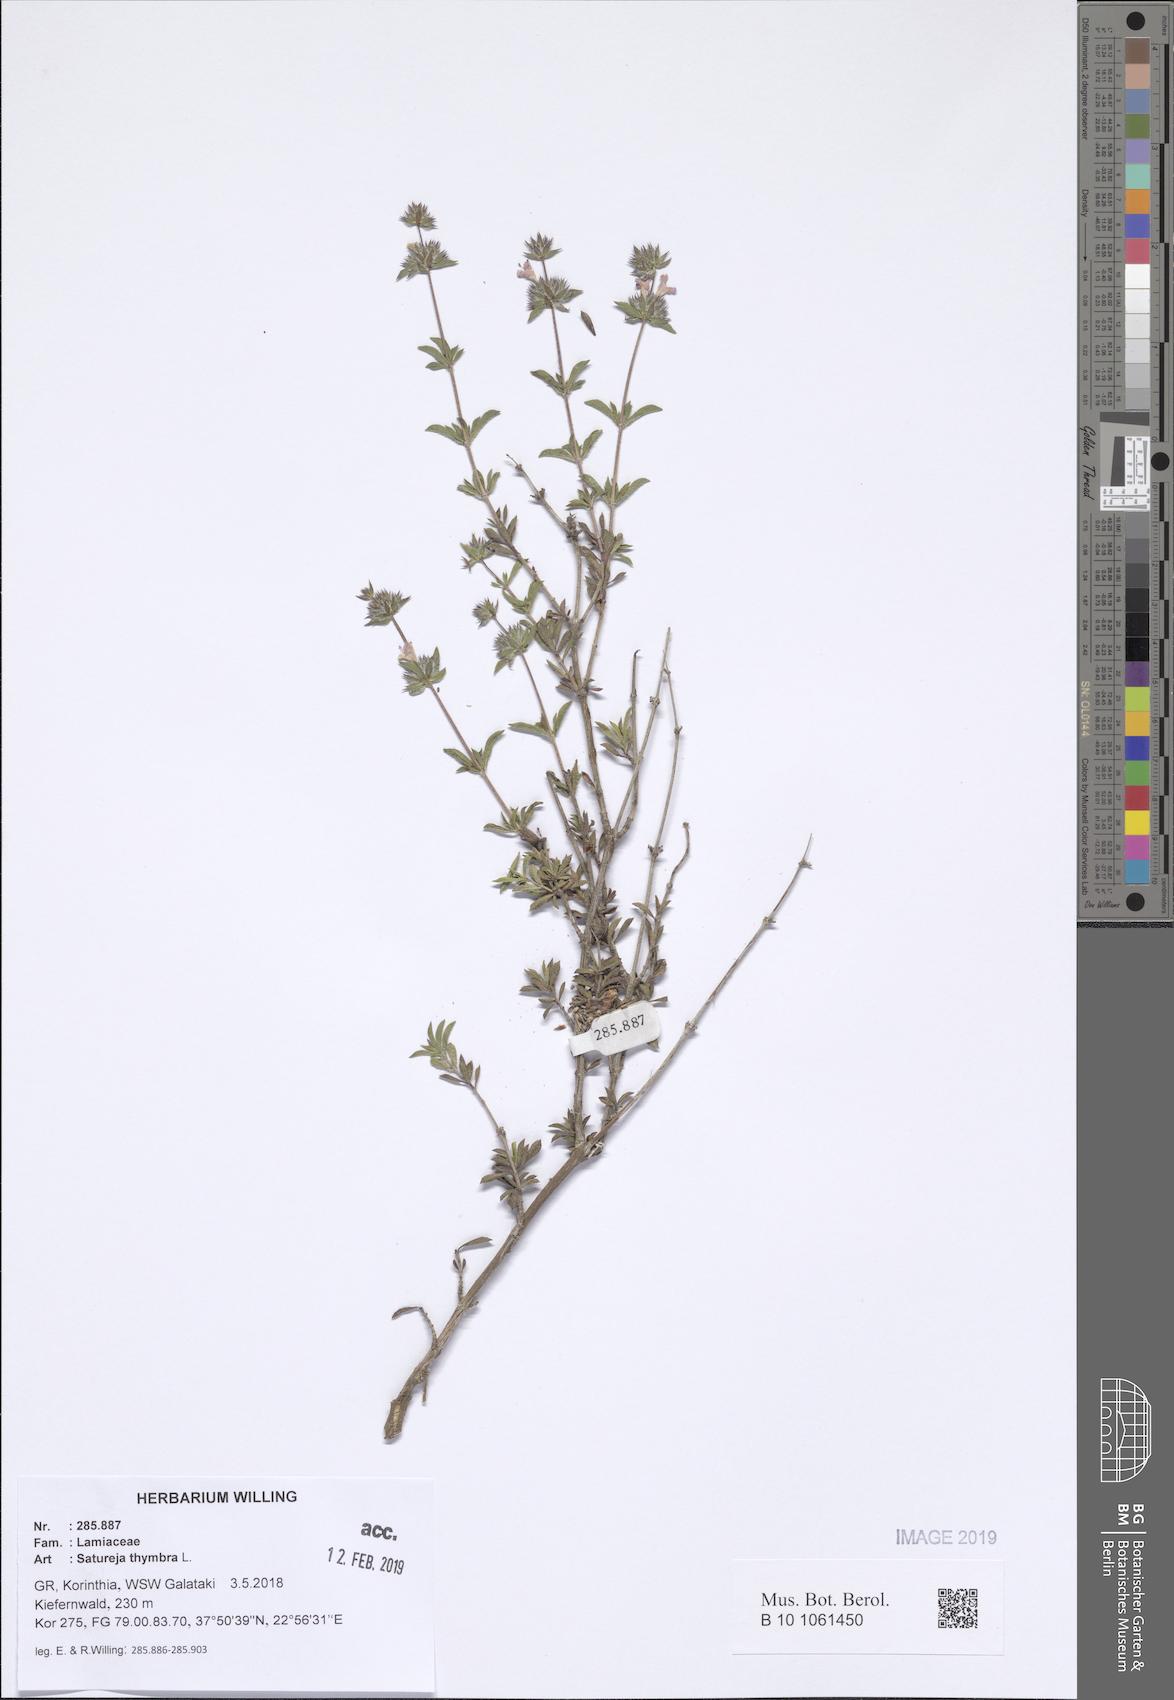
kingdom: Plantae
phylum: Tracheophyta
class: Magnoliopsida
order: Lamiales
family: Lamiaceae
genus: Satureja
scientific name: Satureja thymbra
